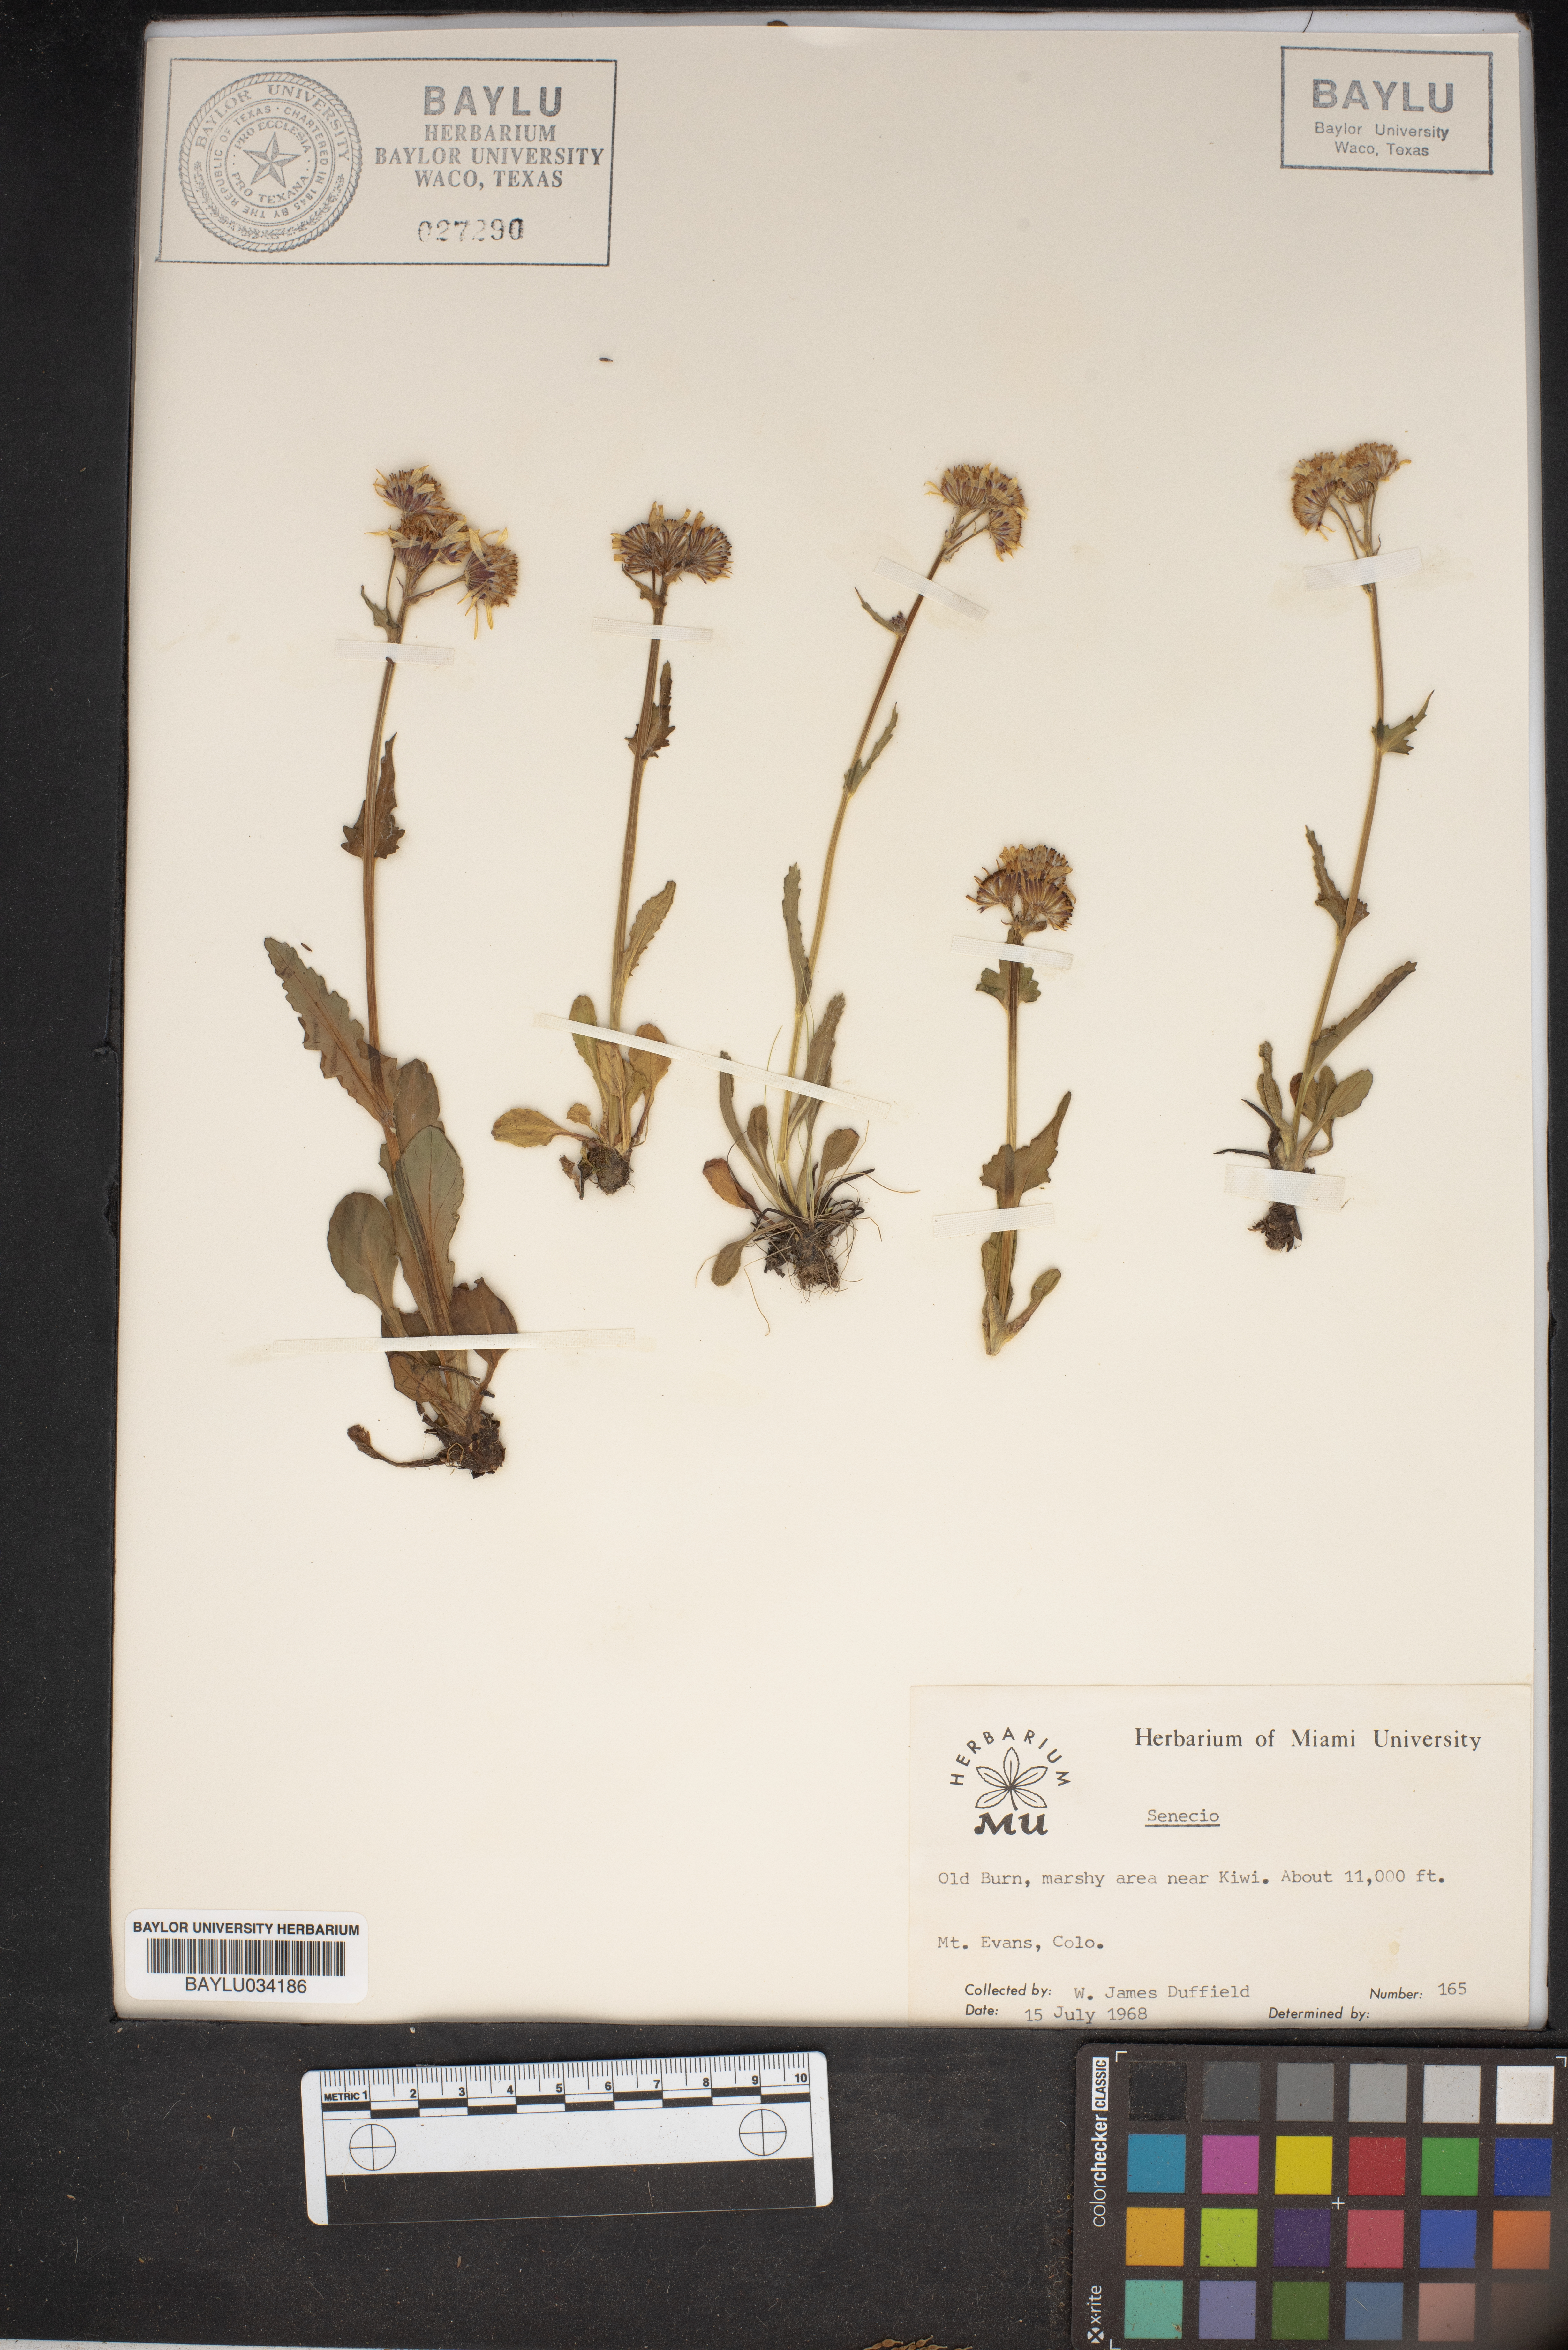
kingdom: Plantae
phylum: Tracheophyta
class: Magnoliopsida
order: Asterales
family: Asteraceae
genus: Senecio
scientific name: Senecio
